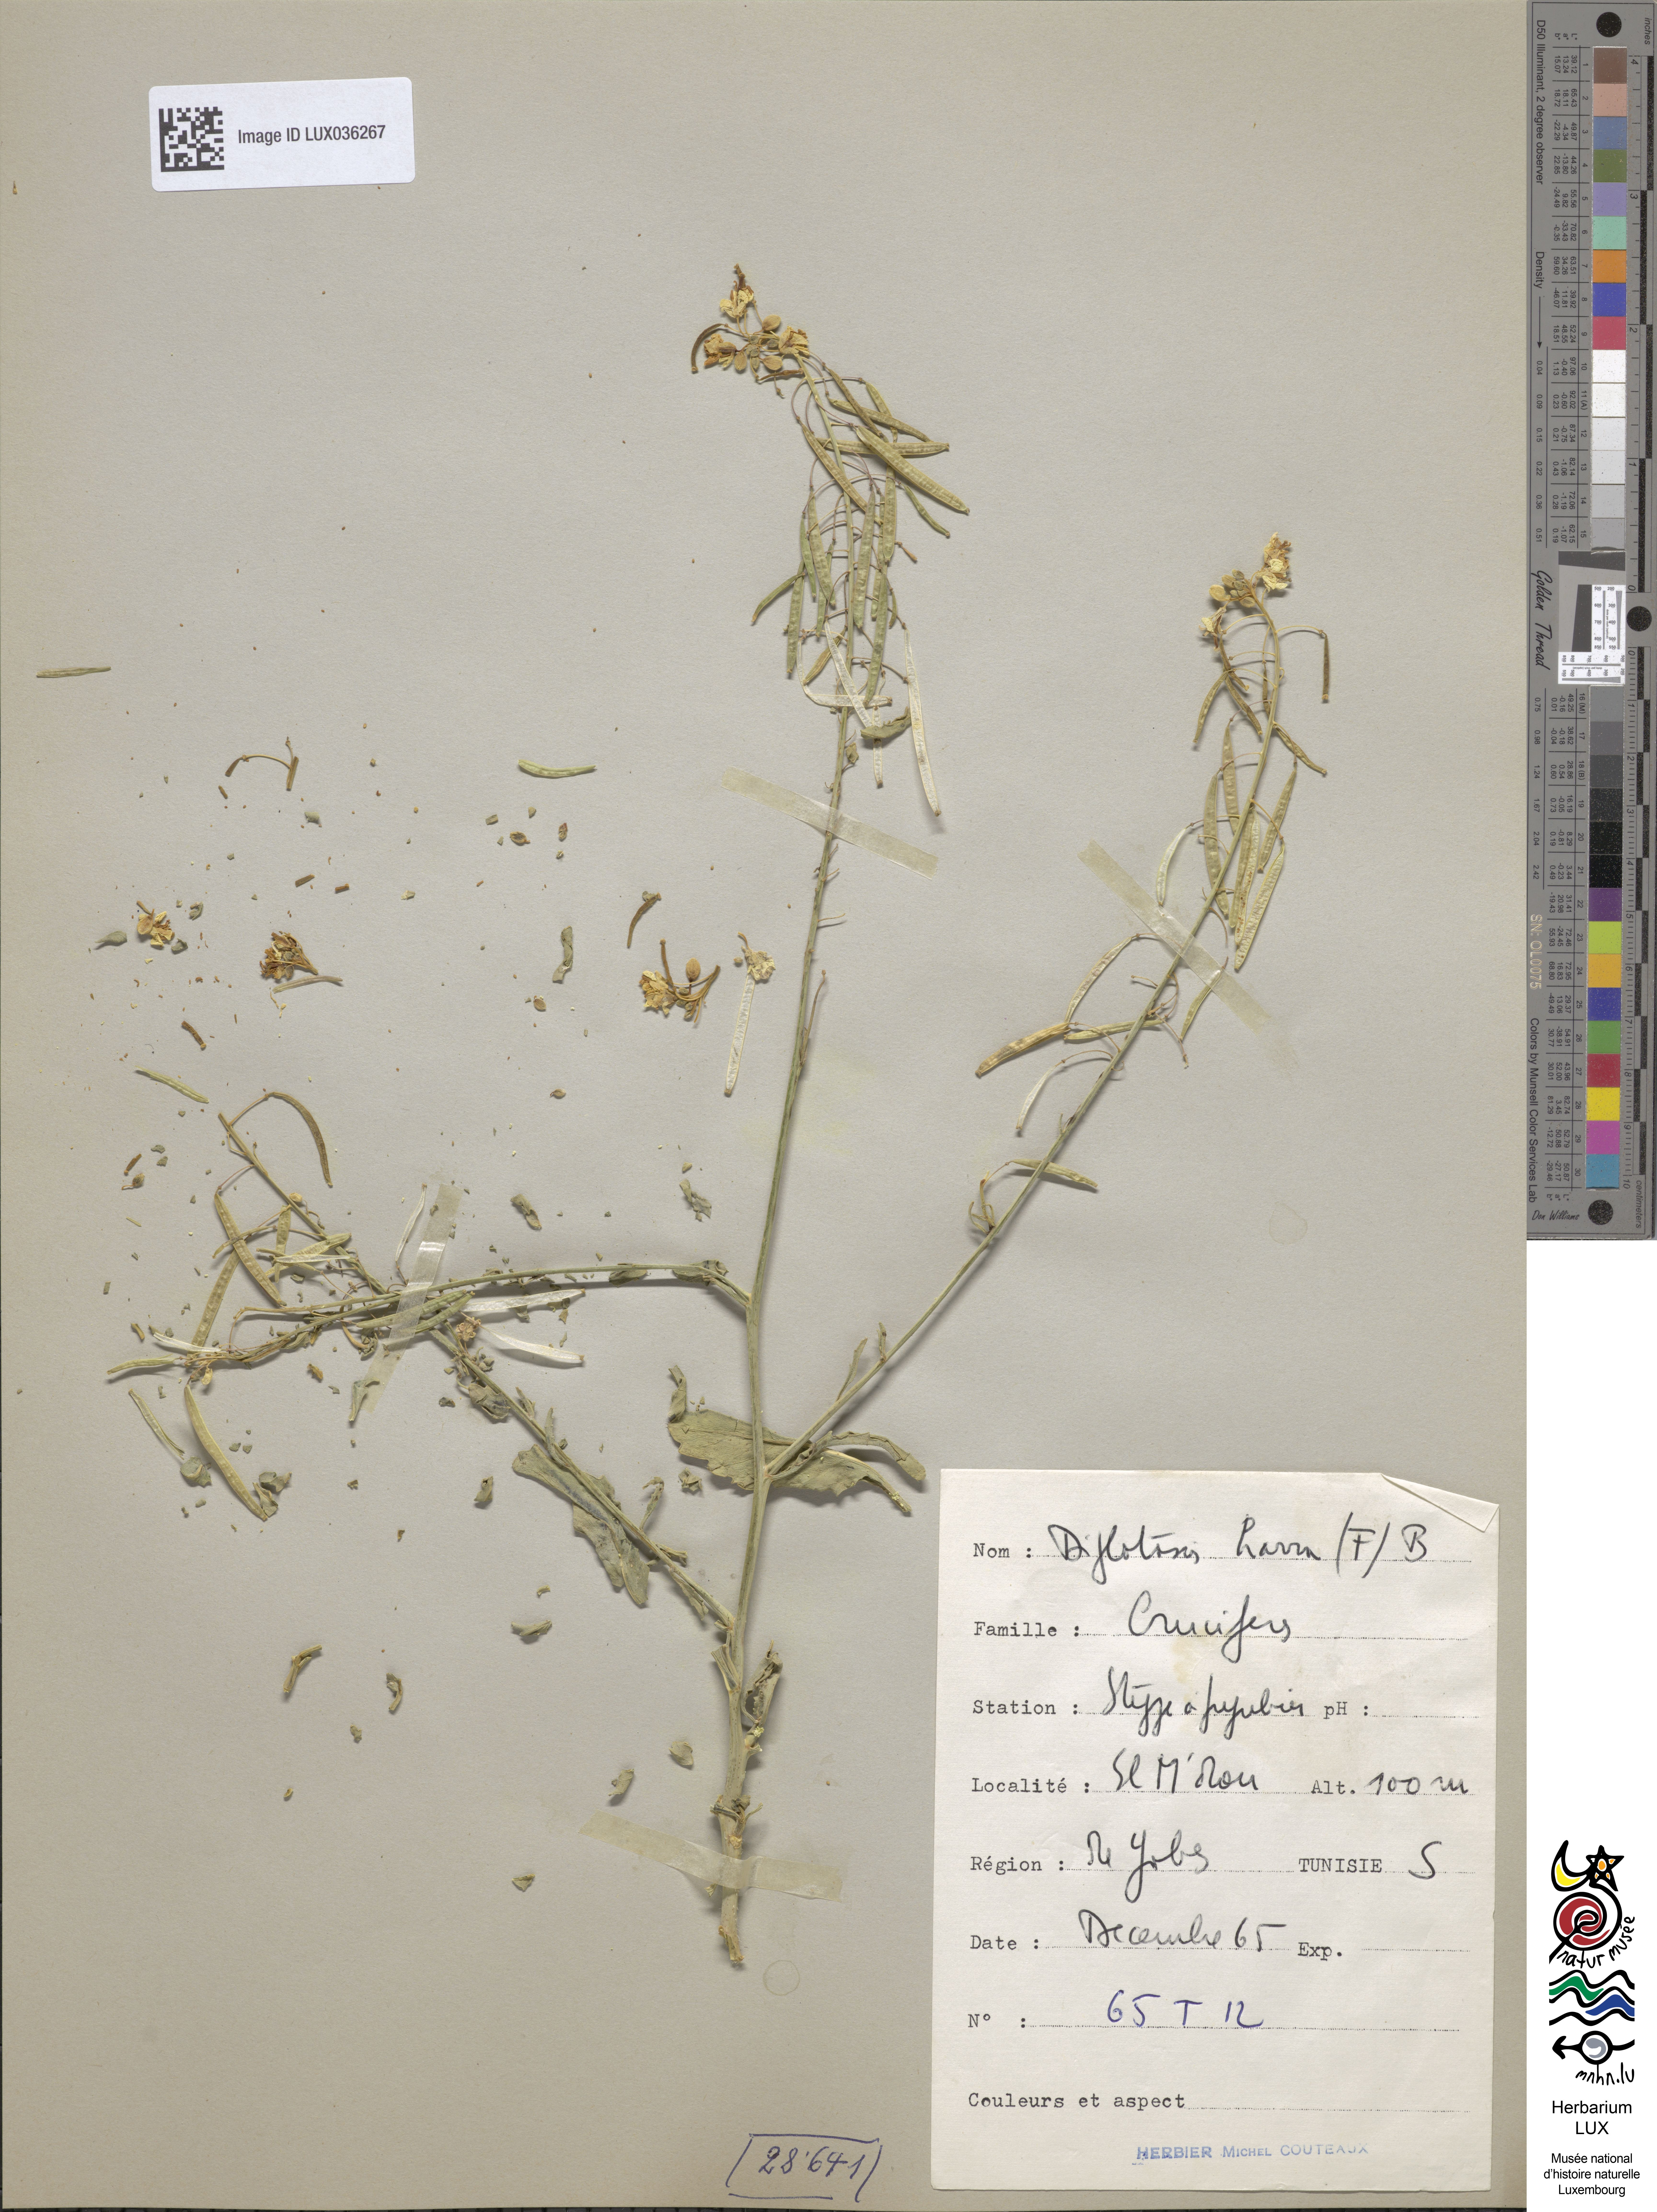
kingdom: Plantae
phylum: Tracheophyta
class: Magnoliopsida
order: Brassicales
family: Brassicaceae
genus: Diplotaxis
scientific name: Diplotaxis harra
